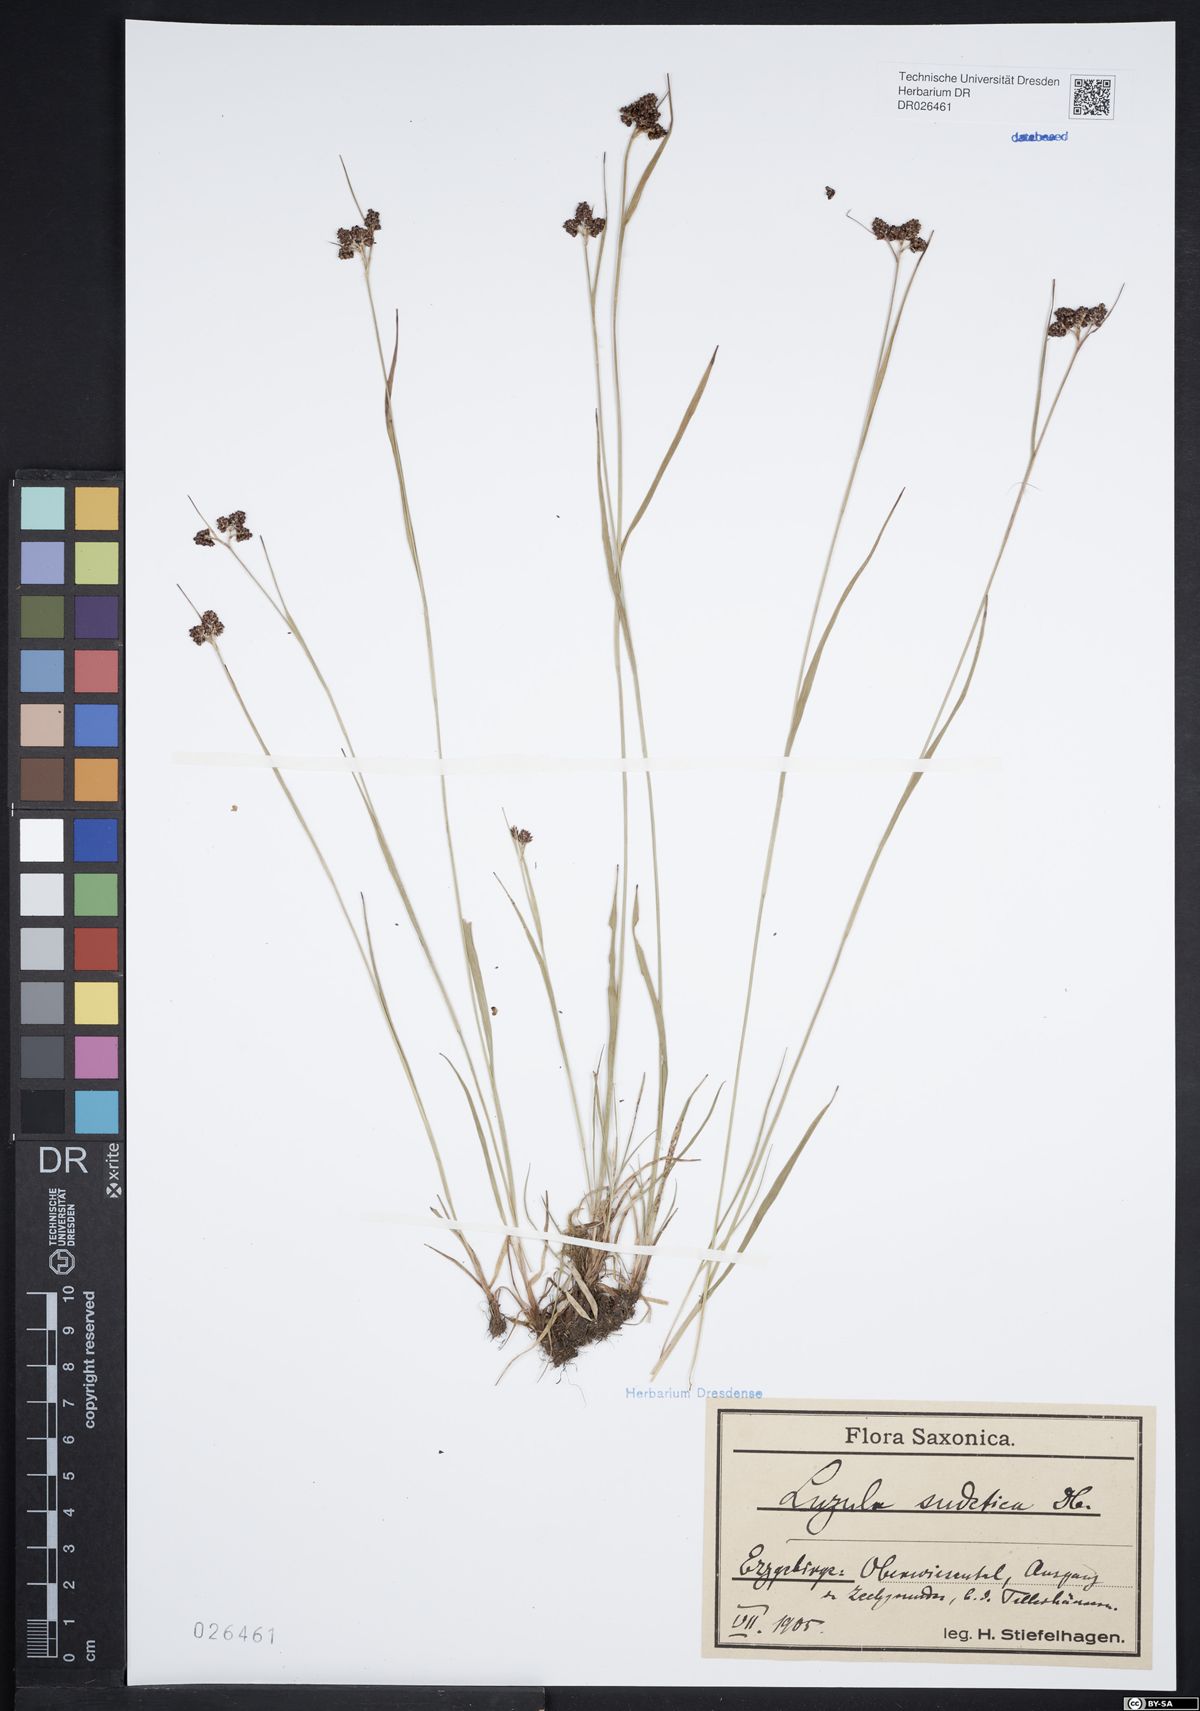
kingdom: Plantae
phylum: Tracheophyta
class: Liliopsida
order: Poales
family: Juncaceae
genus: Luzula
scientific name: Luzula sudetica
